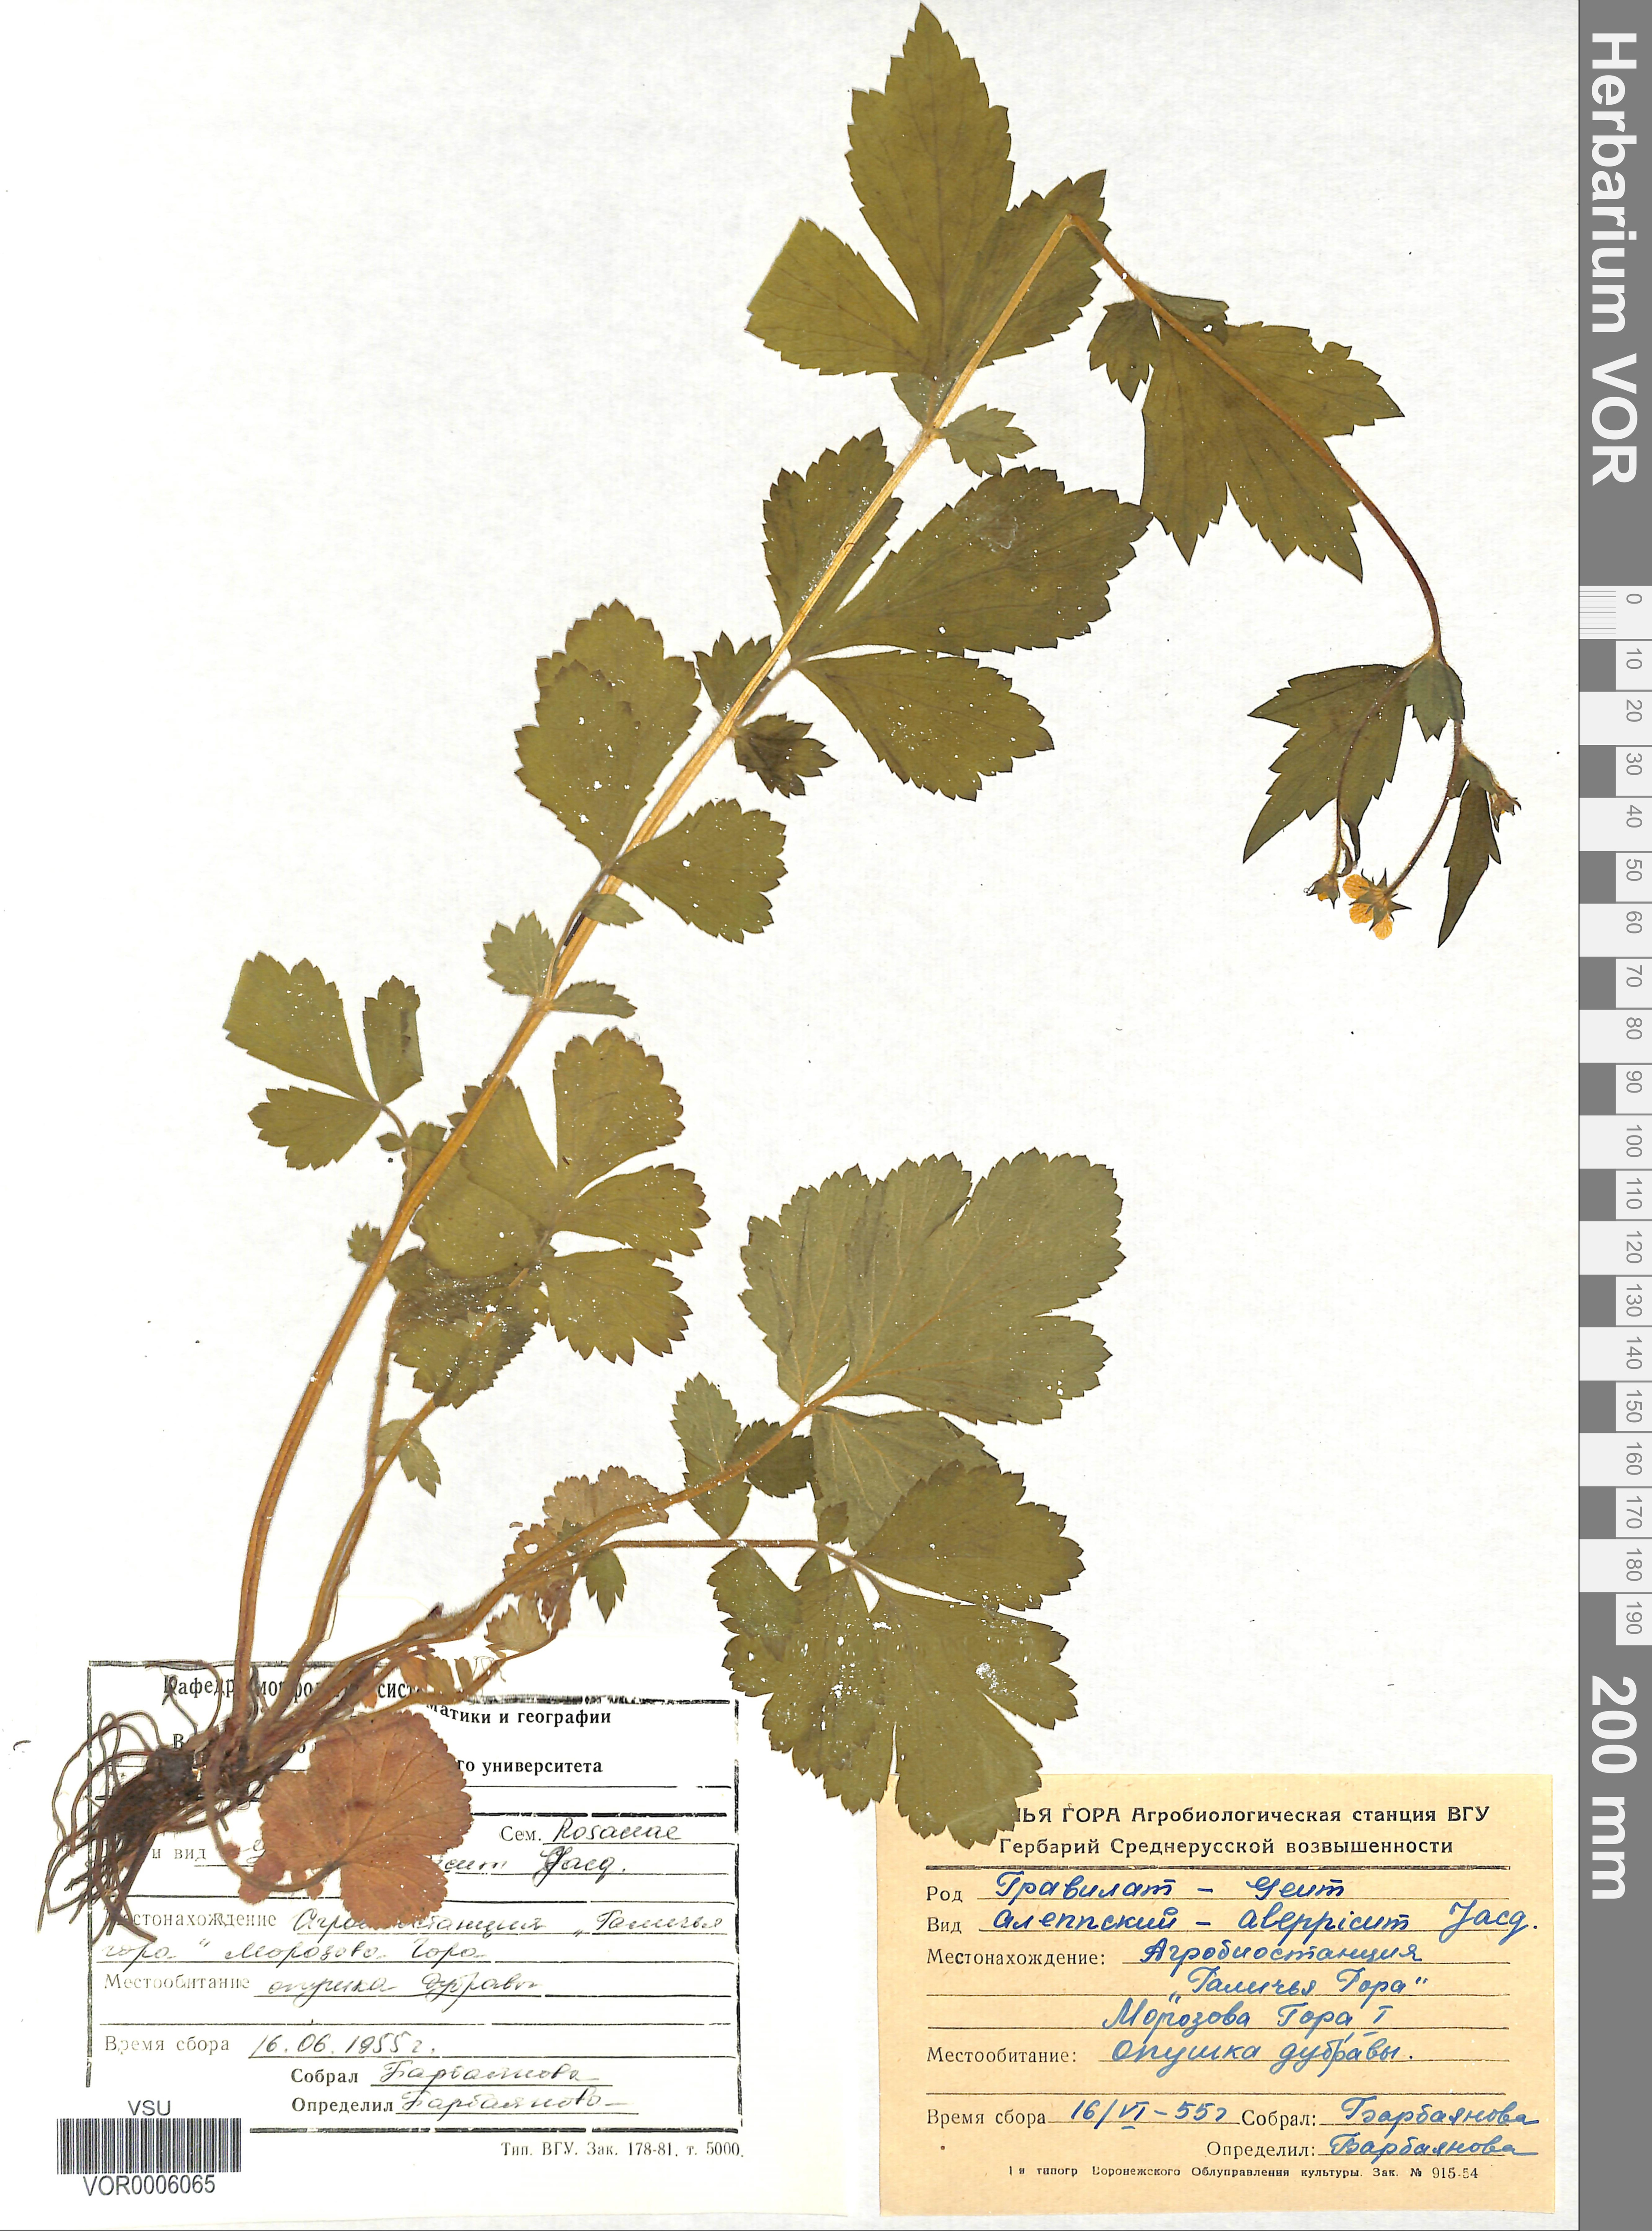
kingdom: Plantae
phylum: Tracheophyta
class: Magnoliopsida
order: Rosales
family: Rosaceae
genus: Geum
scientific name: Geum aleppicum
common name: Yellow avens
